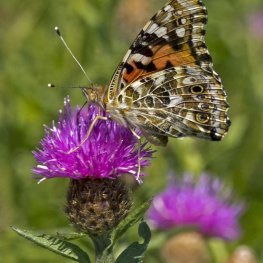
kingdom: Animalia
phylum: Arthropoda
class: Insecta
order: Lepidoptera
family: Nymphalidae
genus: Vanessa
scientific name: Vanessa cardui
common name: Painted Lady
